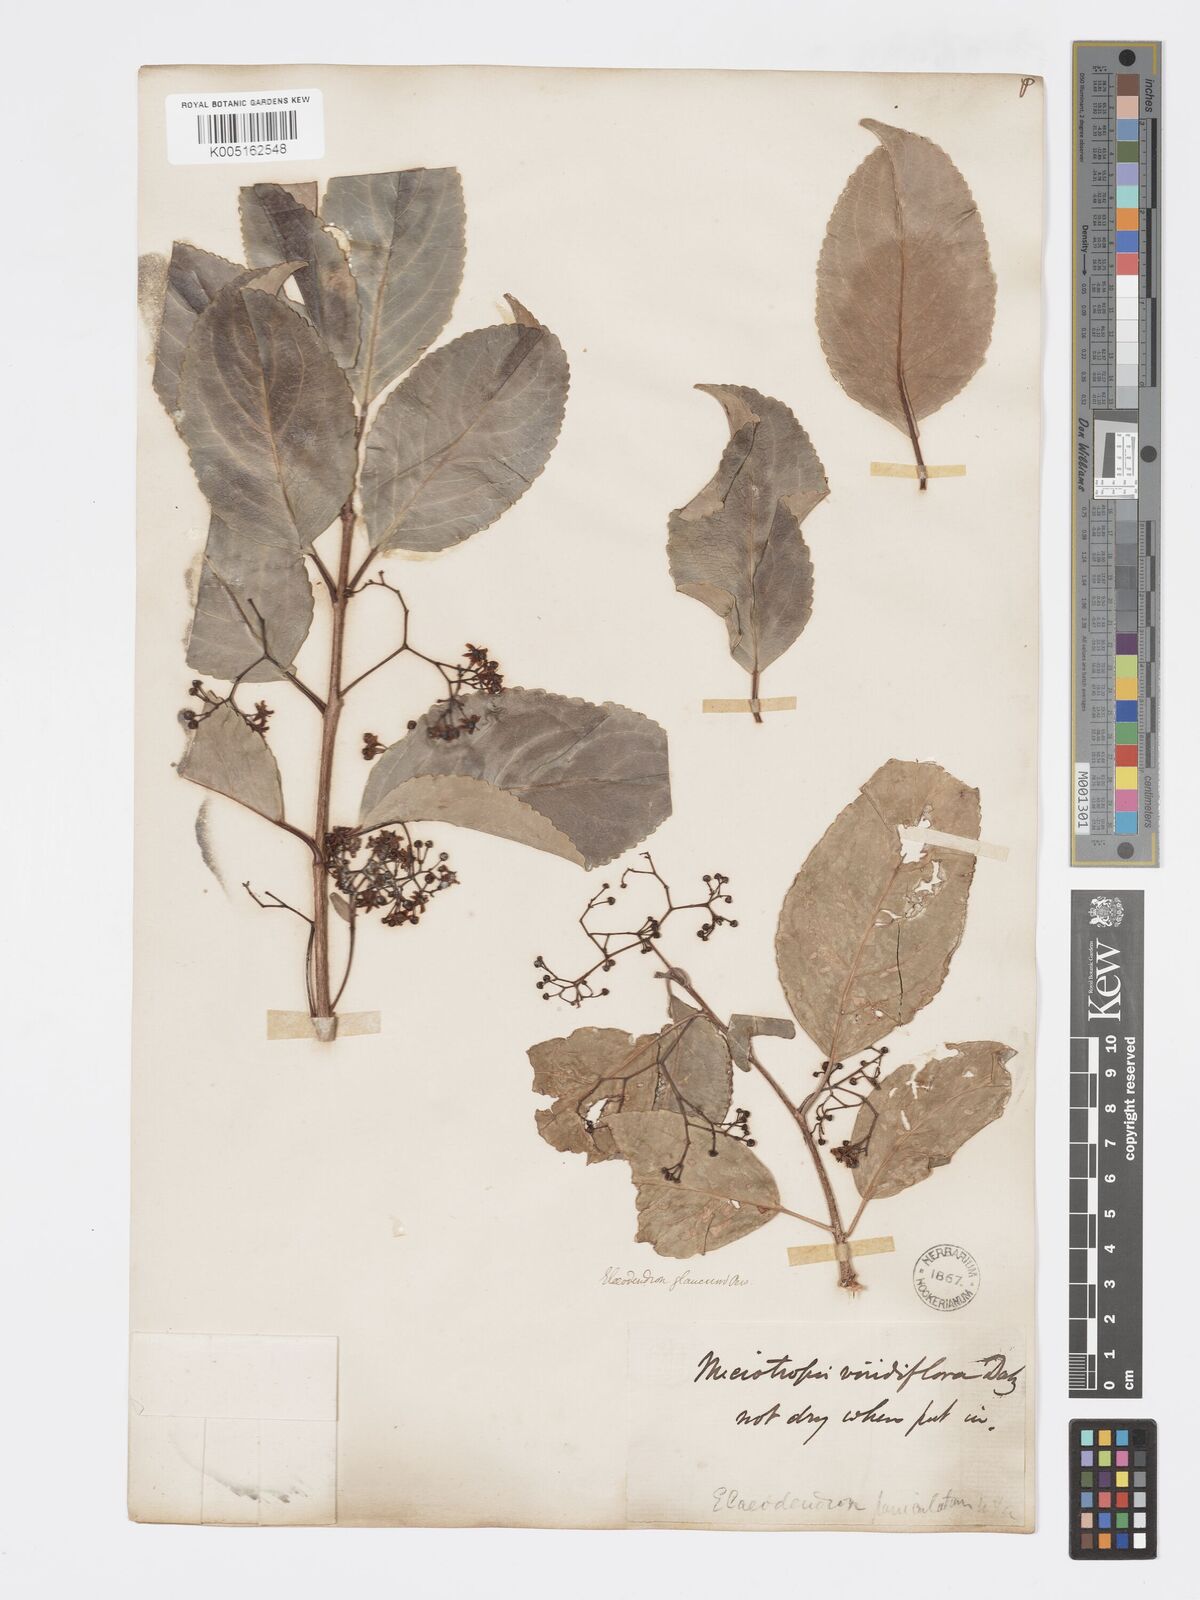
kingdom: Plantae
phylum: Tracheophyta
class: Magnoliopsida
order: Celastrales
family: Celastraceae
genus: Elaeodendron
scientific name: Elaeodendron glaucum
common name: Ceylon-tea
